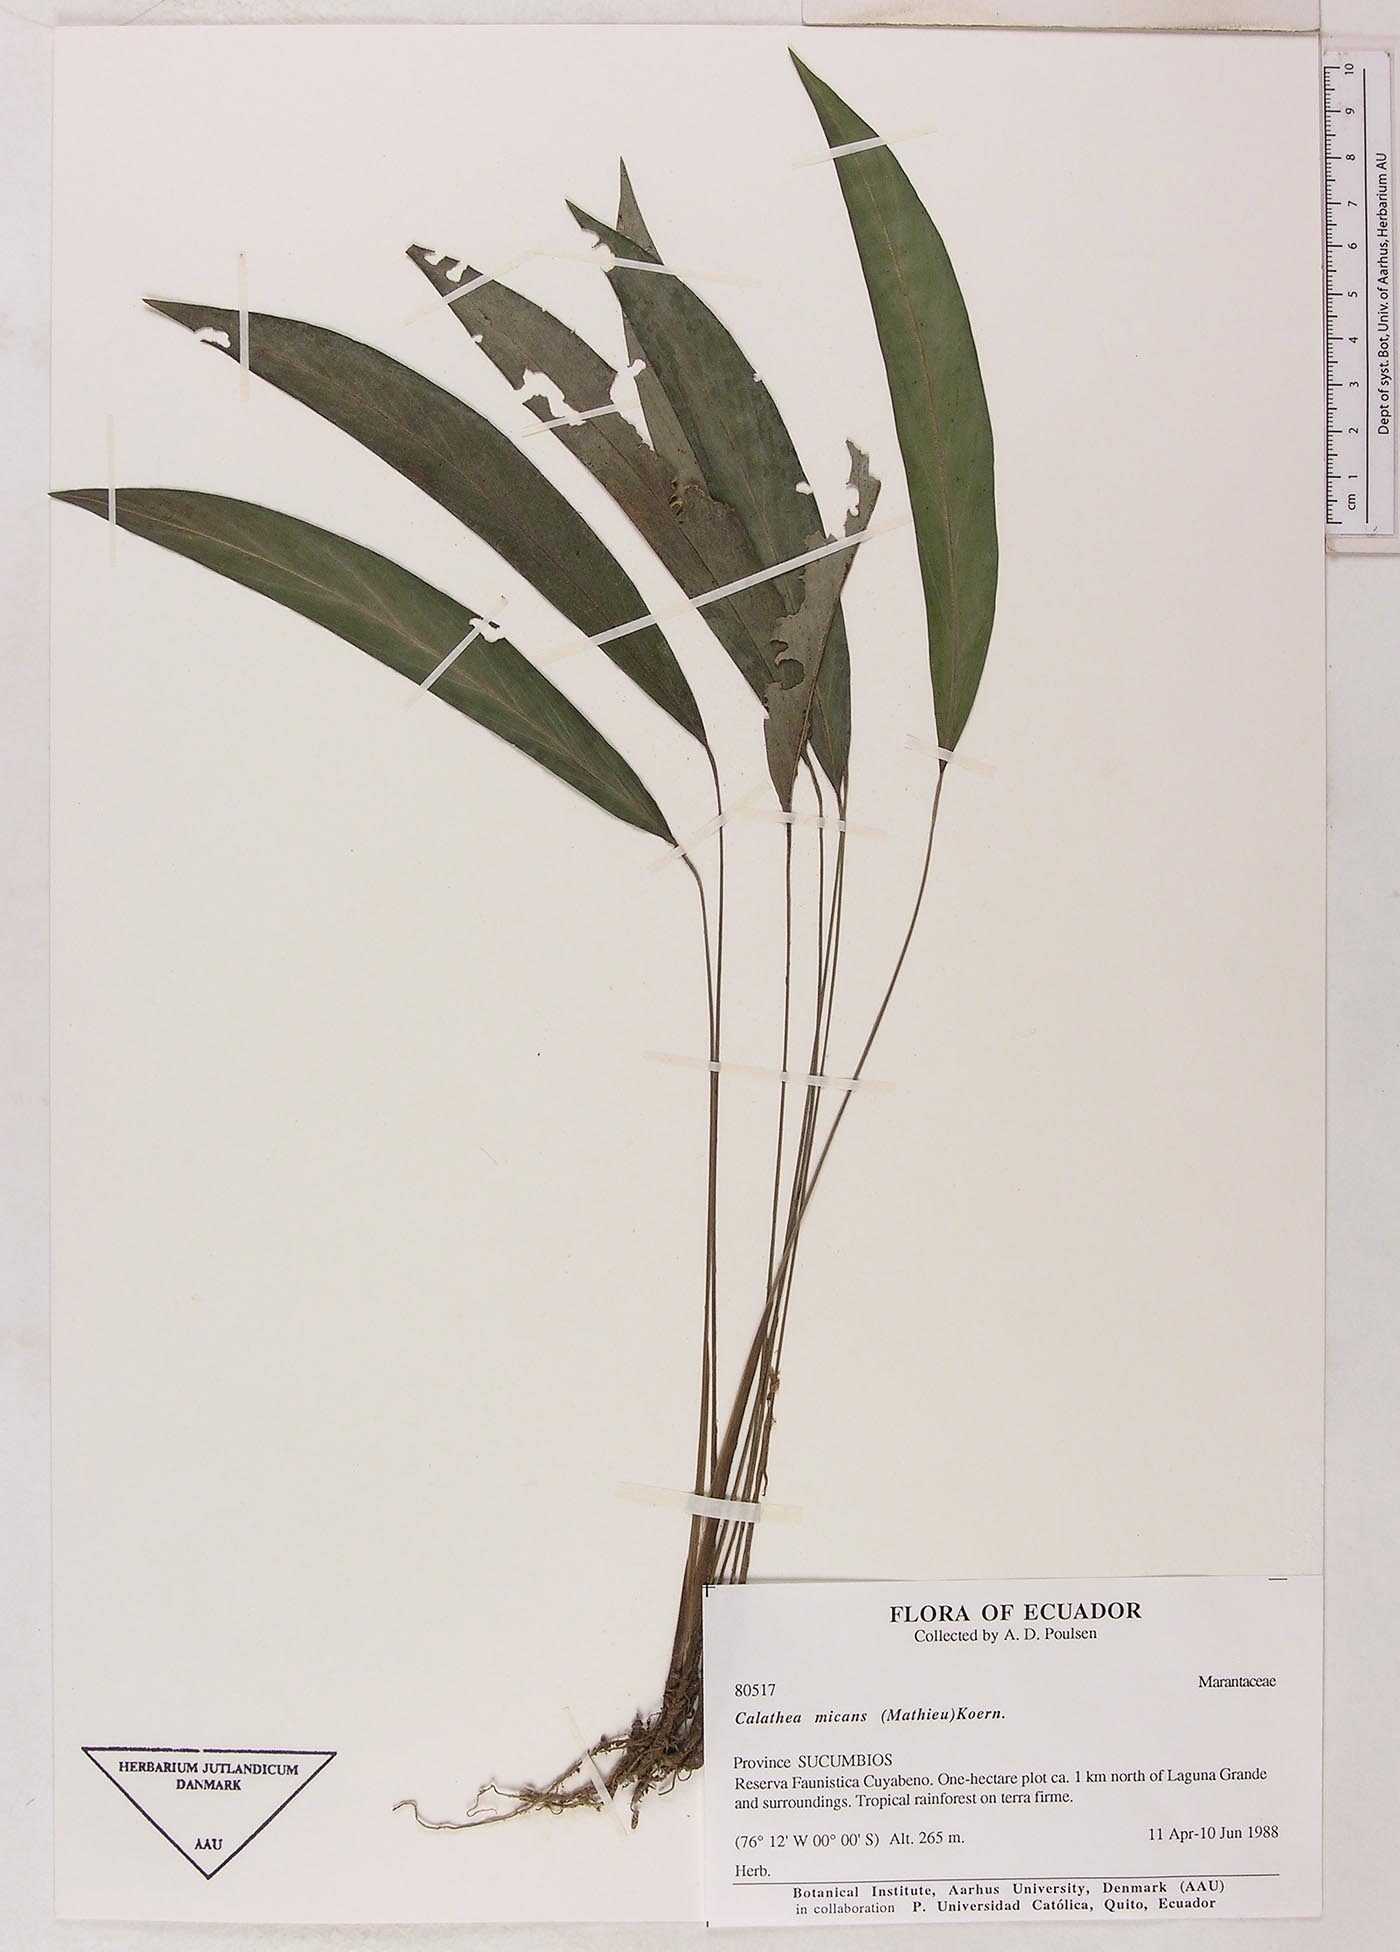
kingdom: Plantae
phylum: Tracheophyta
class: Liliopsida
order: Zingiberales
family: Marantaceae
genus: Goeppertia
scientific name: Goeppertia micans
